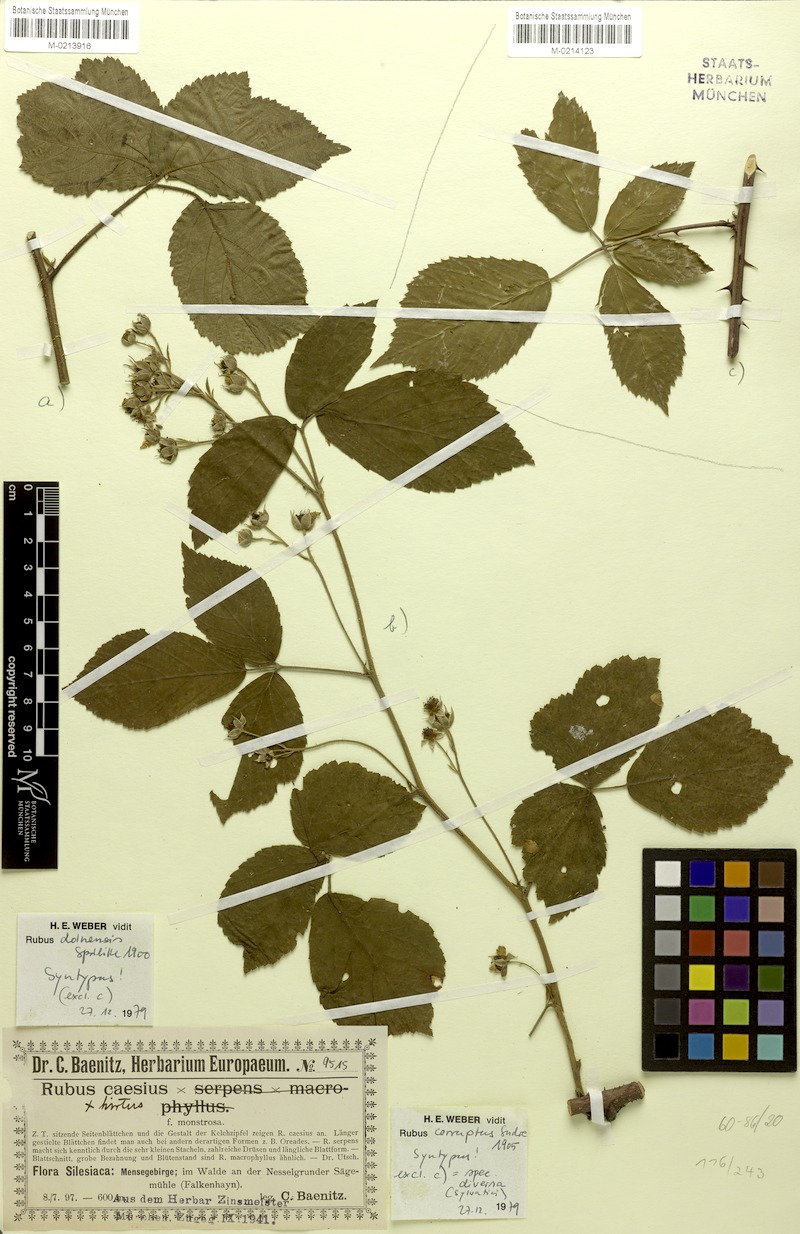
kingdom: Plantae
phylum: Tracheophyta
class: Magnoliopsida
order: Rosales
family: Rosaceae
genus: Rubus
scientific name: Rubus dollnensis
